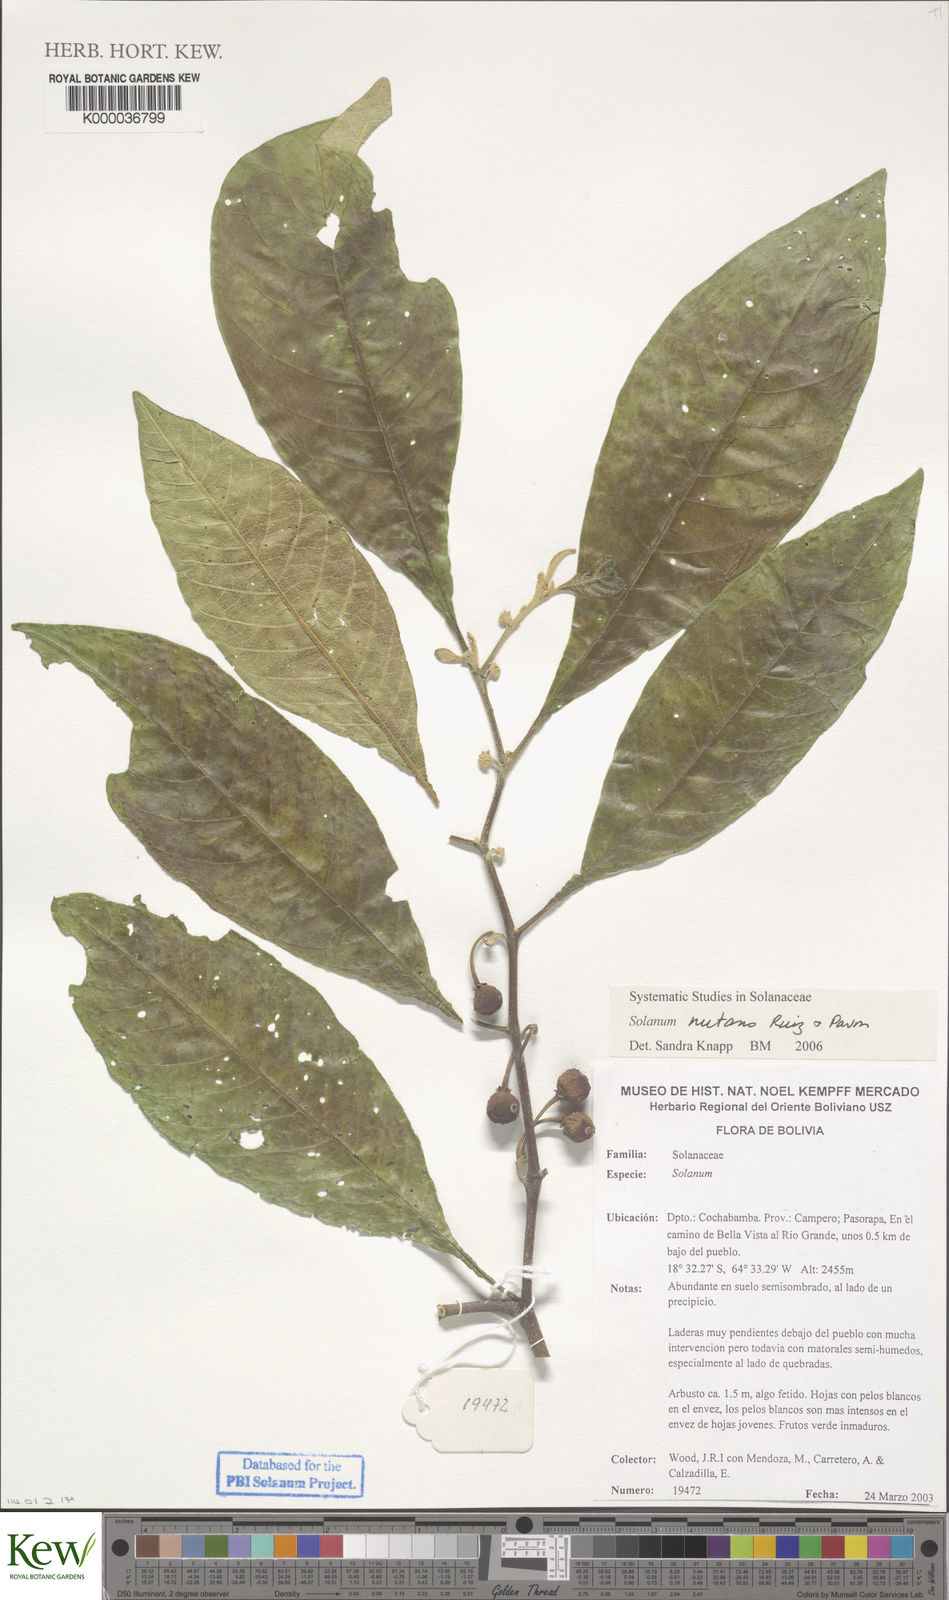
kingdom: Plantae
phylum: Tracheophyta
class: Magnoliopsida
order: Solanales
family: Solanaceae
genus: Solanum
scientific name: Solanum nutans
